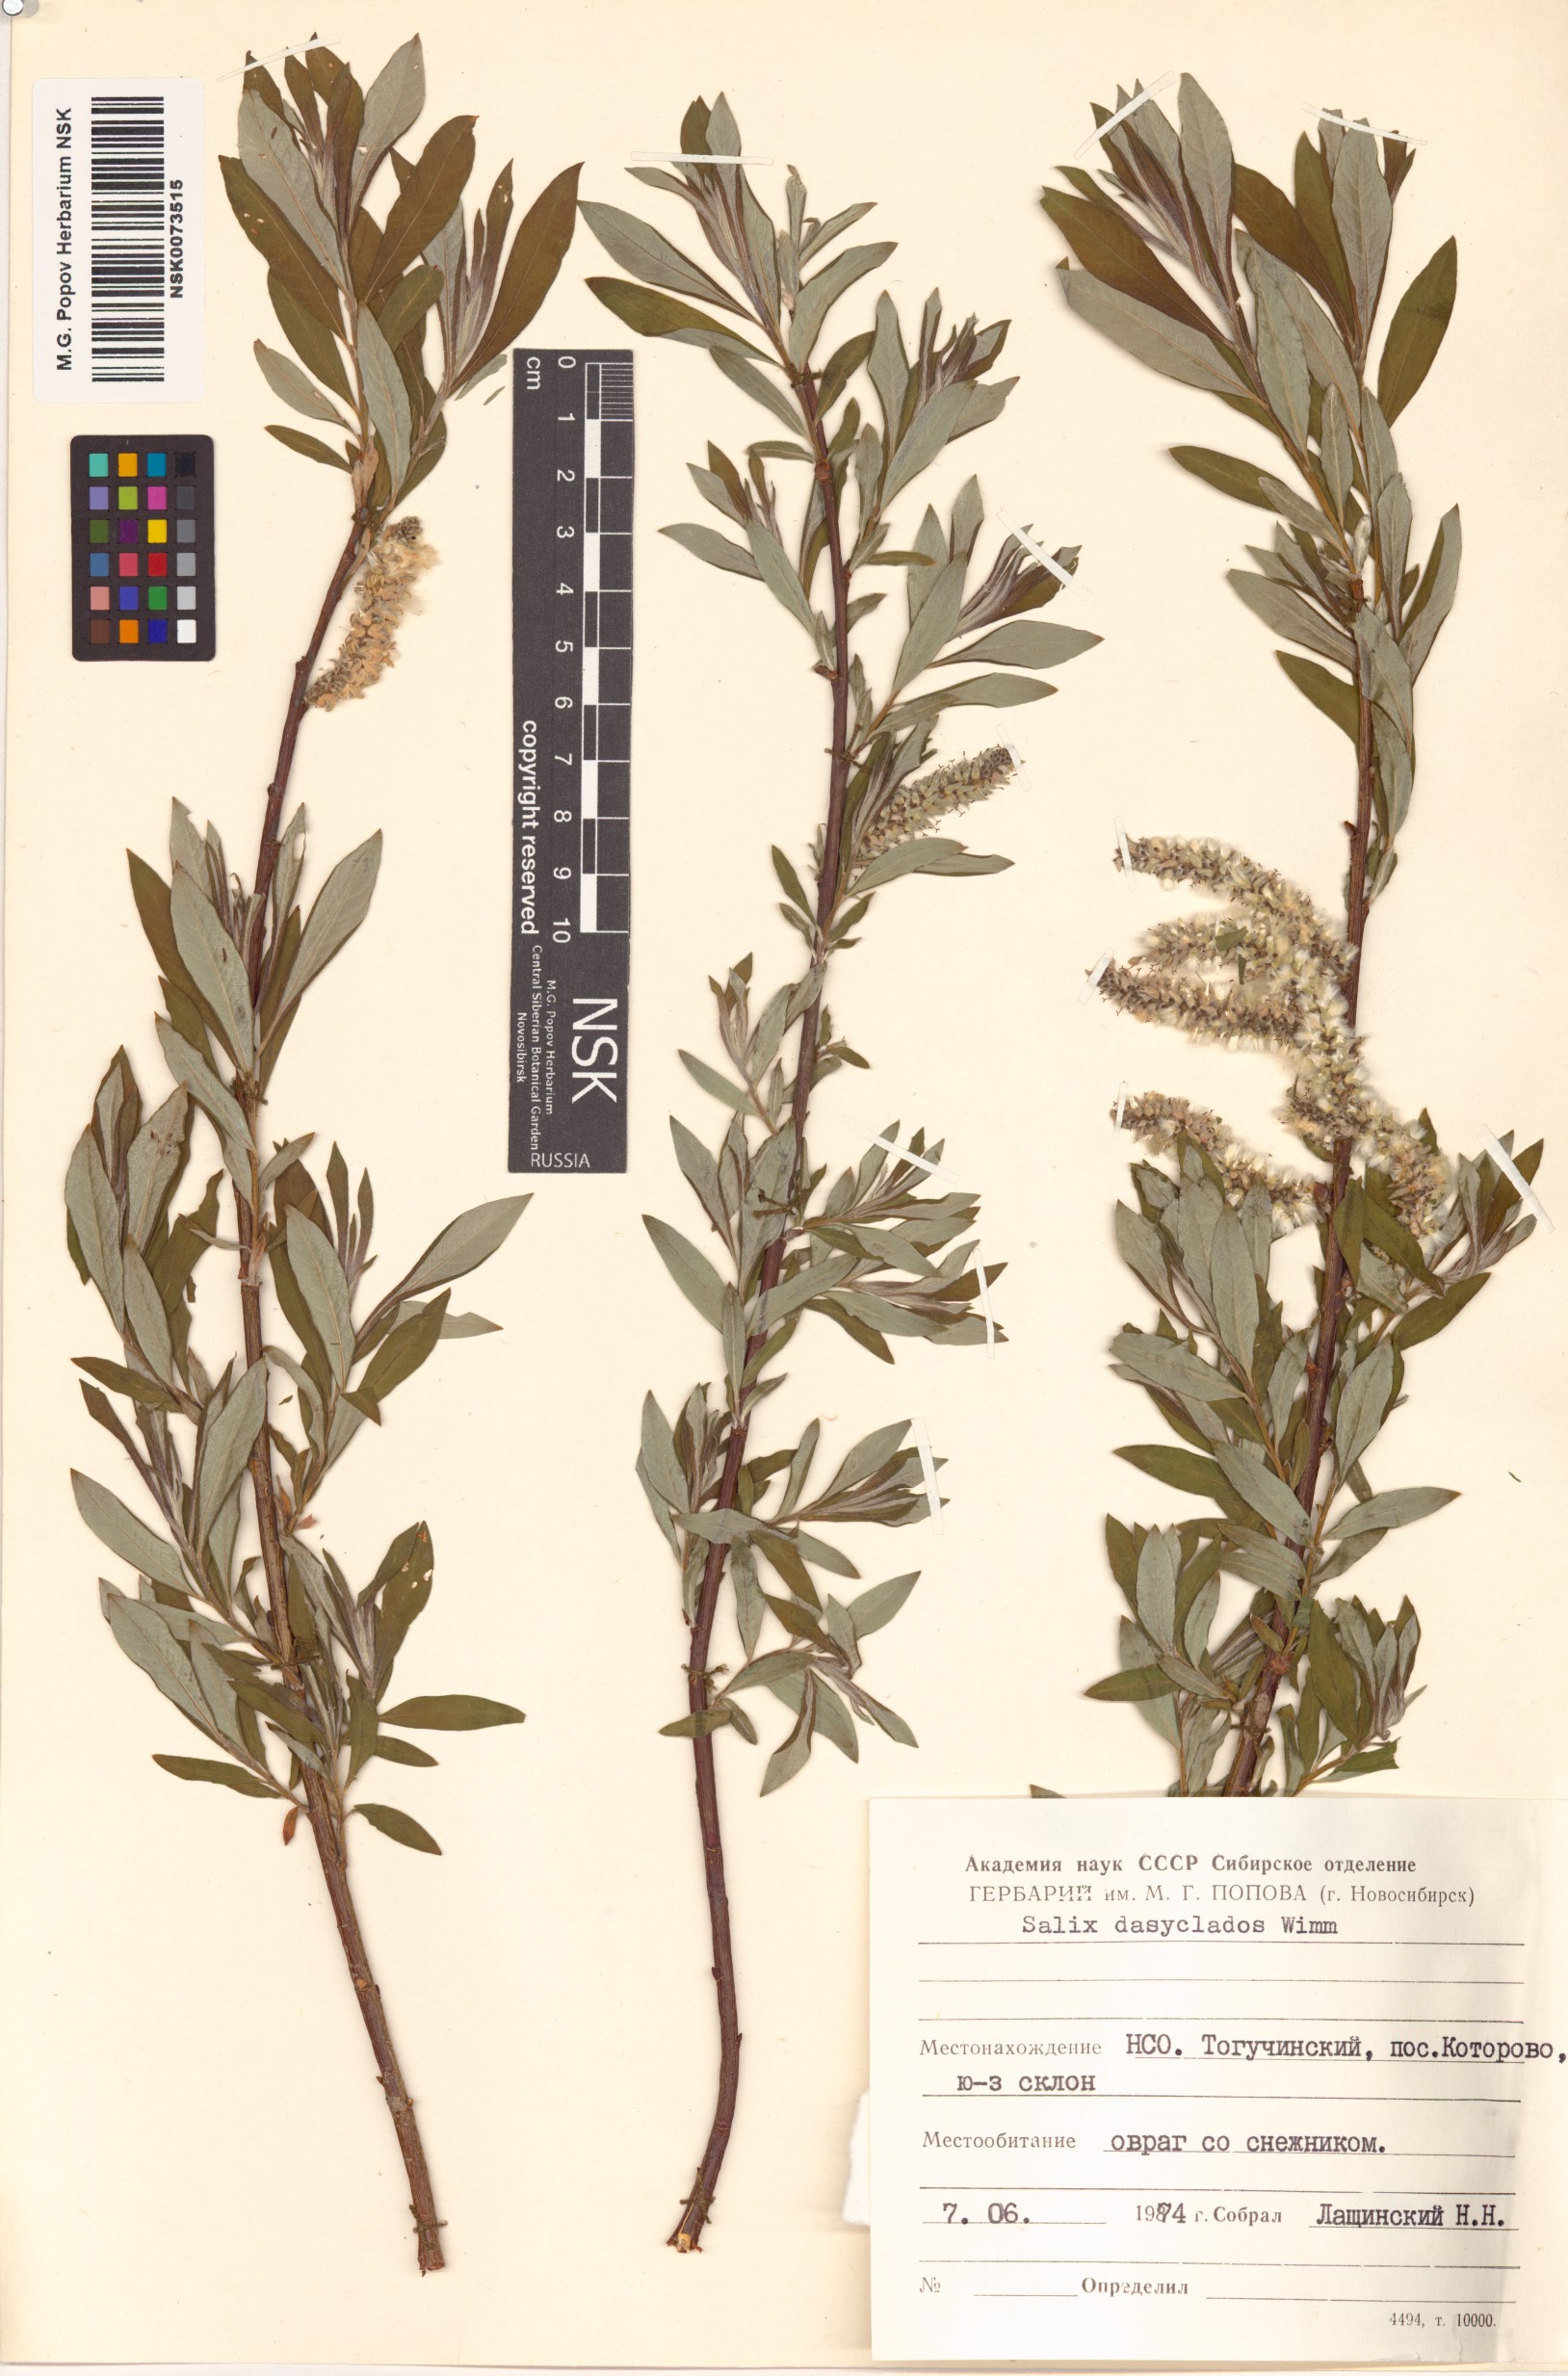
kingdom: Plantae
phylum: Tracheophyta
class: Magnoliopsida
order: Malpighiales
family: Salicaceae
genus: Salix
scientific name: Salix gmelinii
